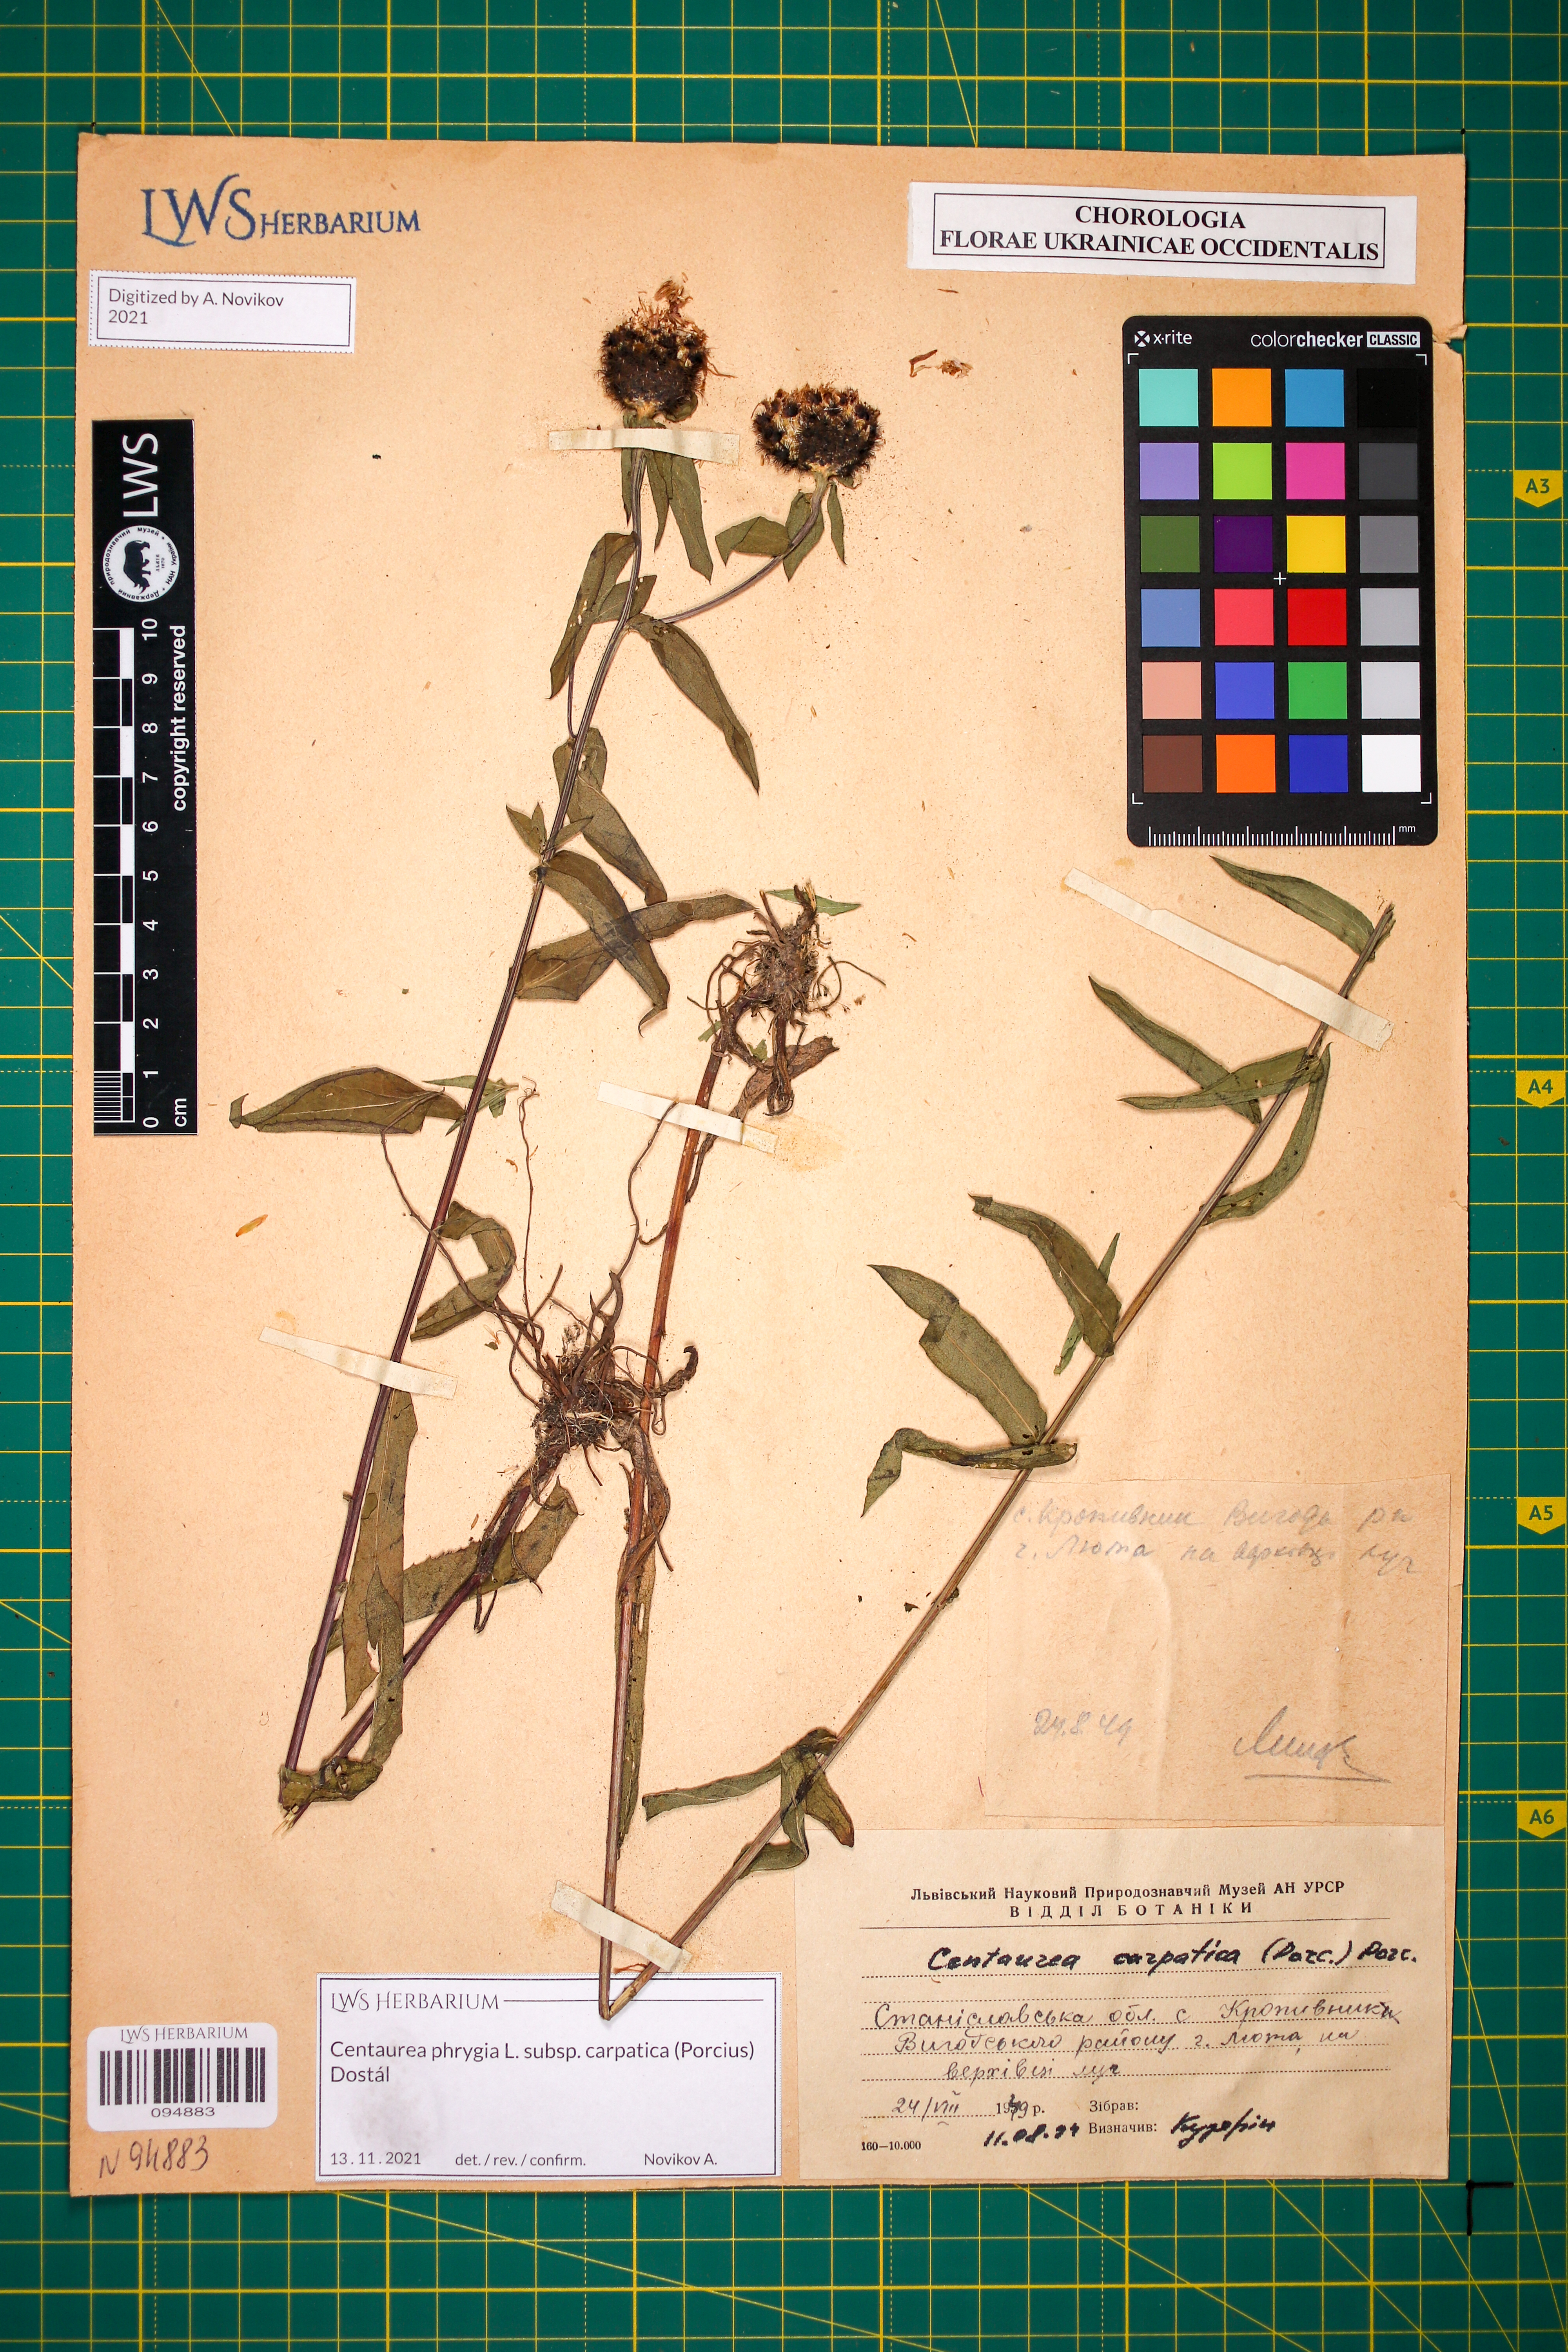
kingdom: Plantae
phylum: Tracheophyta
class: Magnoliopsida
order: Asterales
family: Asteraceae
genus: Centaurea
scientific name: Centaurea phrygia
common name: Wig knapweed
